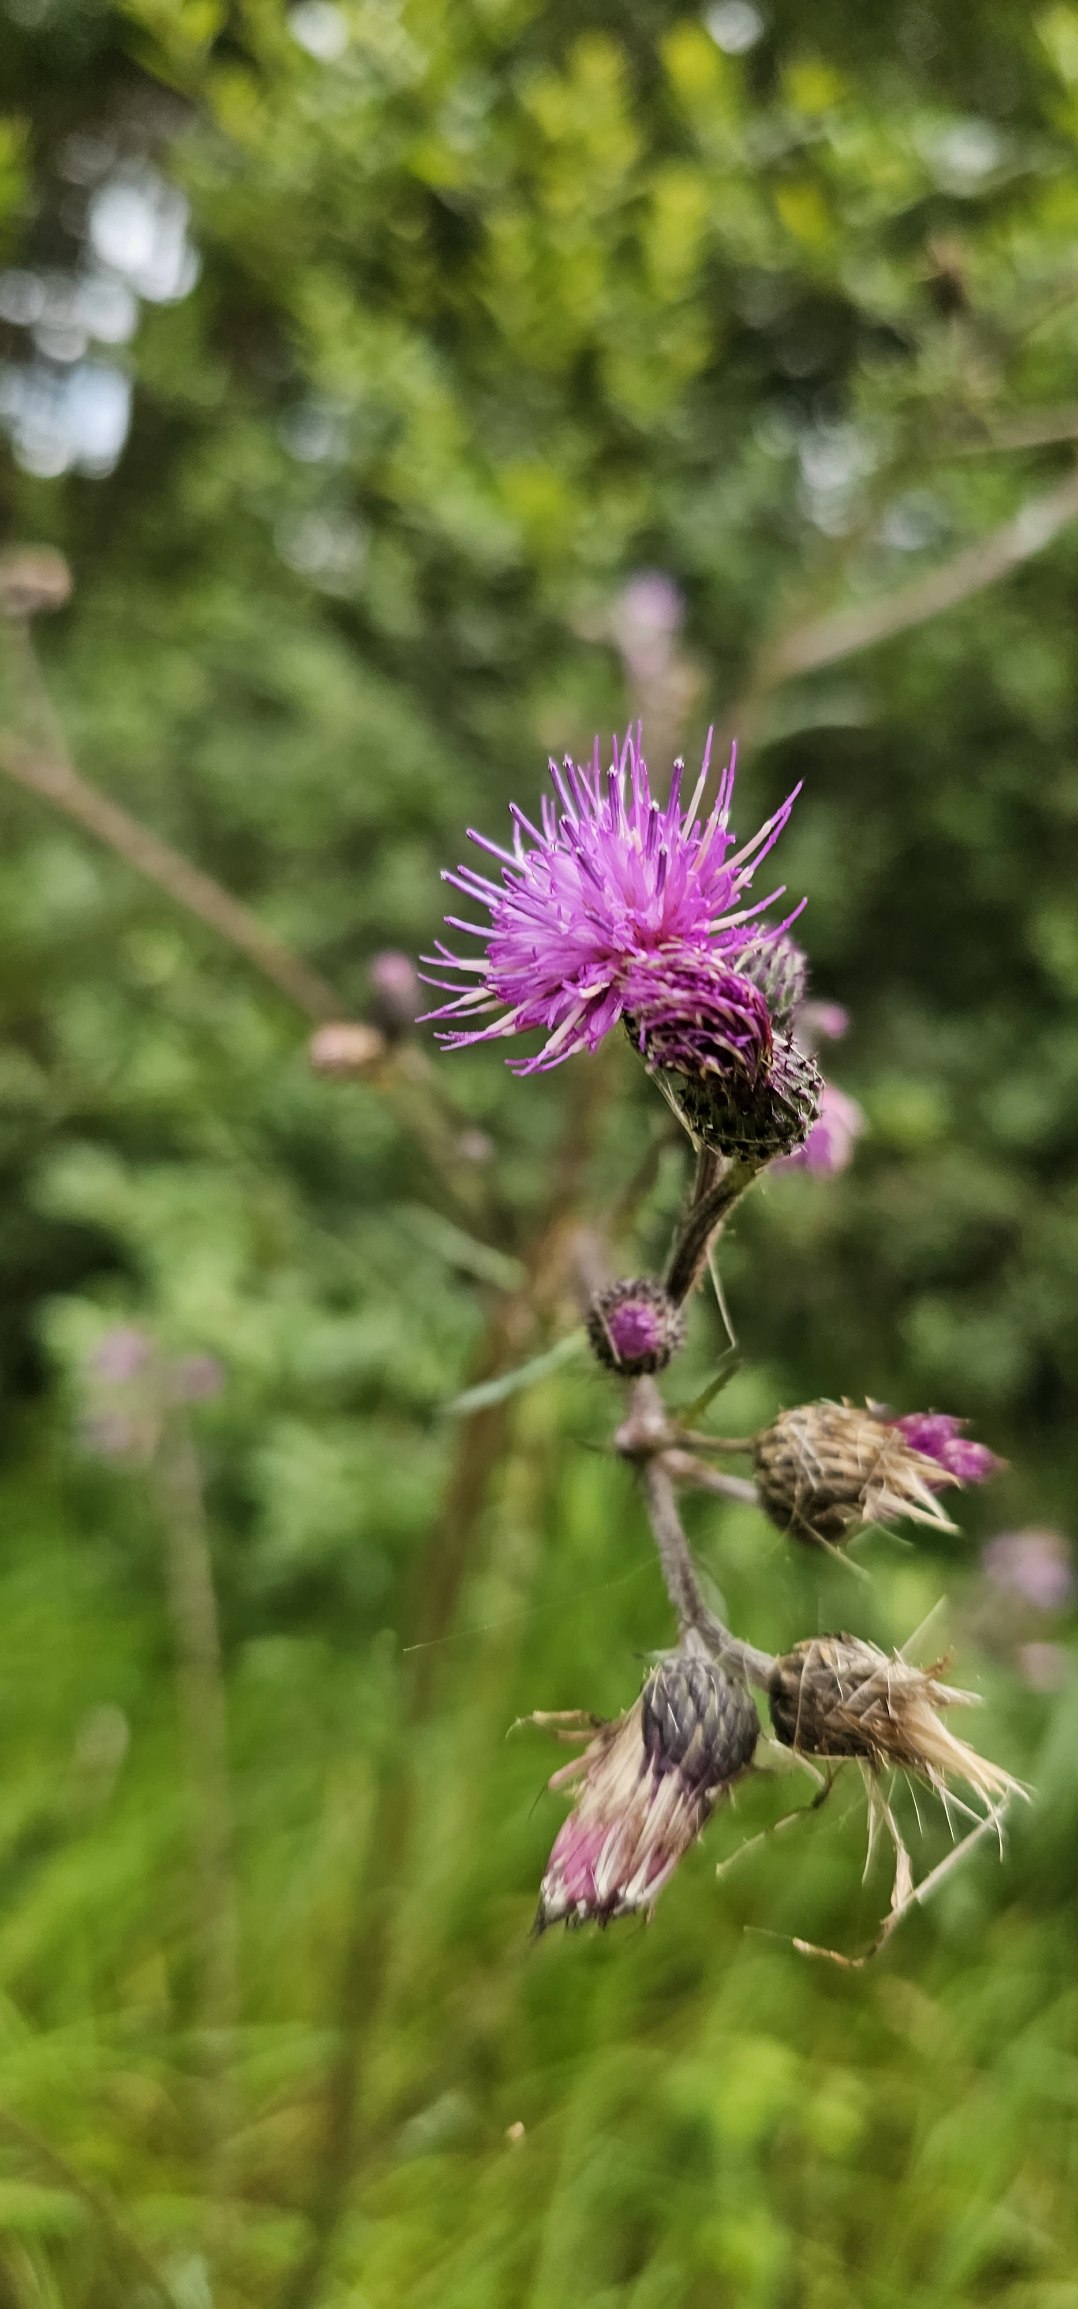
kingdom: Plantae
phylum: Tracheophyta
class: Magnoliopsida
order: Asterales
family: Asteraceae
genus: Cirsium
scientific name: Cirsium palustre
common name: Kær-tidsel
